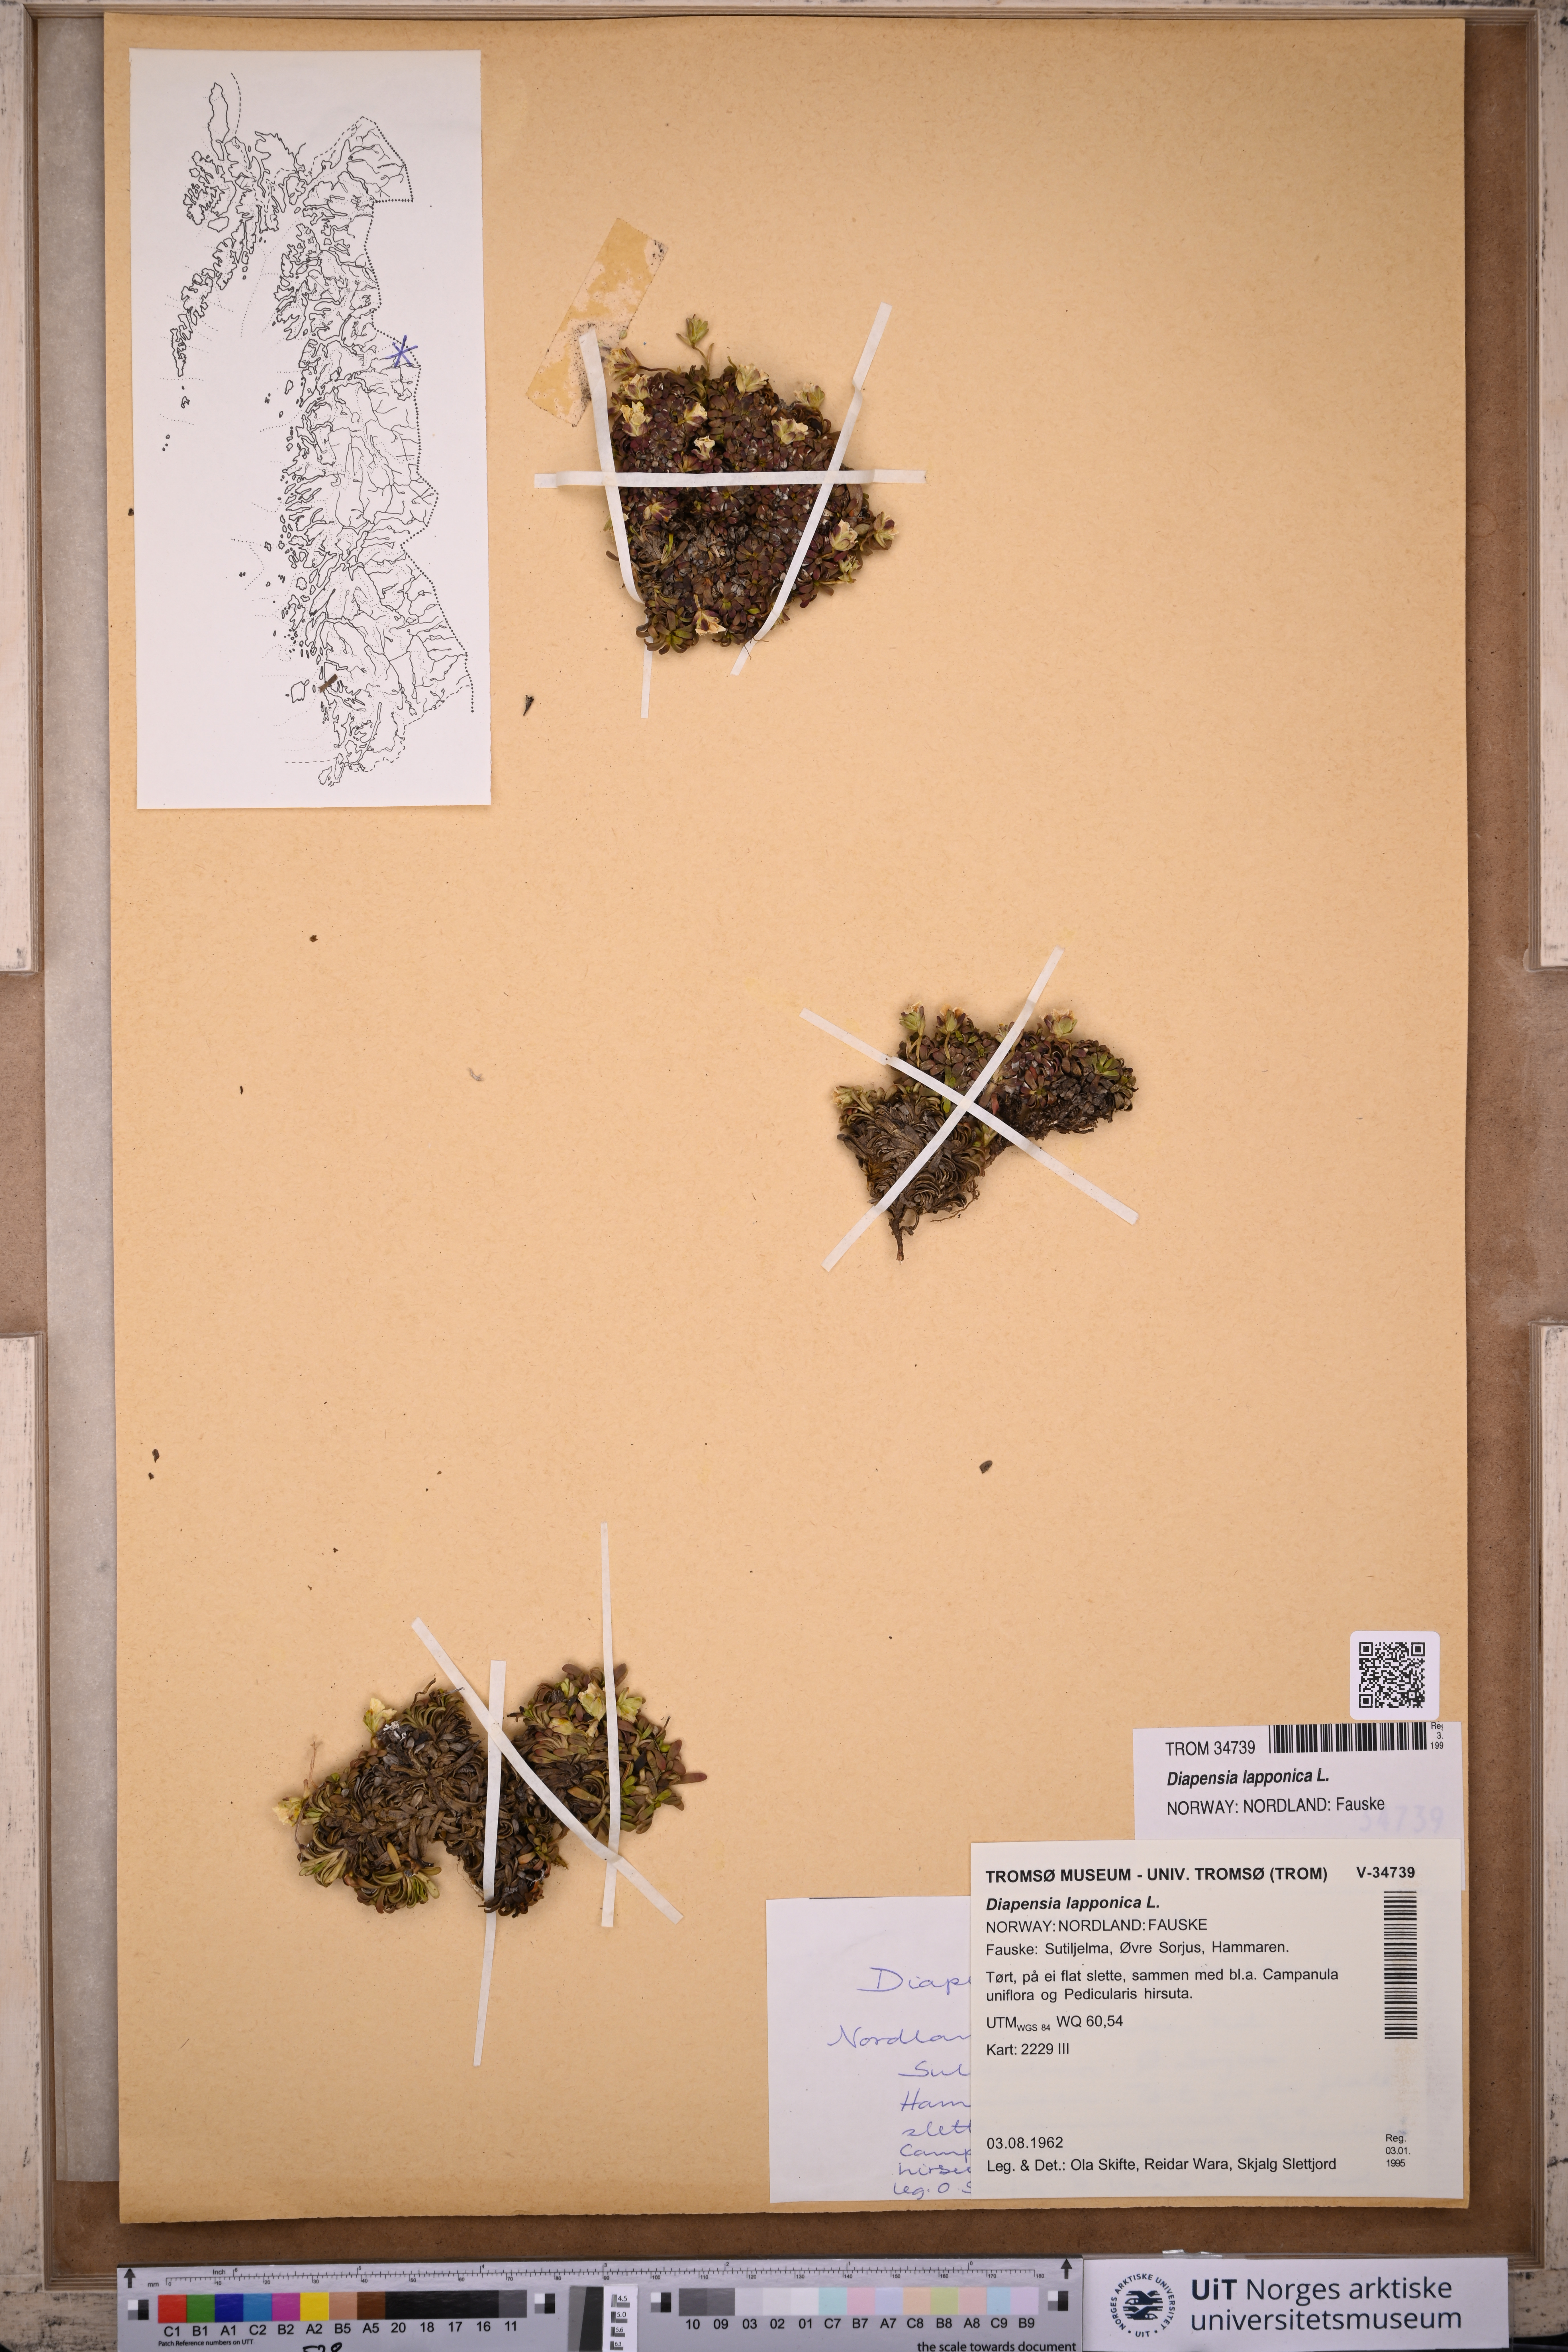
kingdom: Plantae
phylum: Tracheophyta
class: Magnoliopsida
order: Ericales
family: Diapensiaceae
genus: Diapensia
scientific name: Diapensia lapponica
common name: Diapensia
